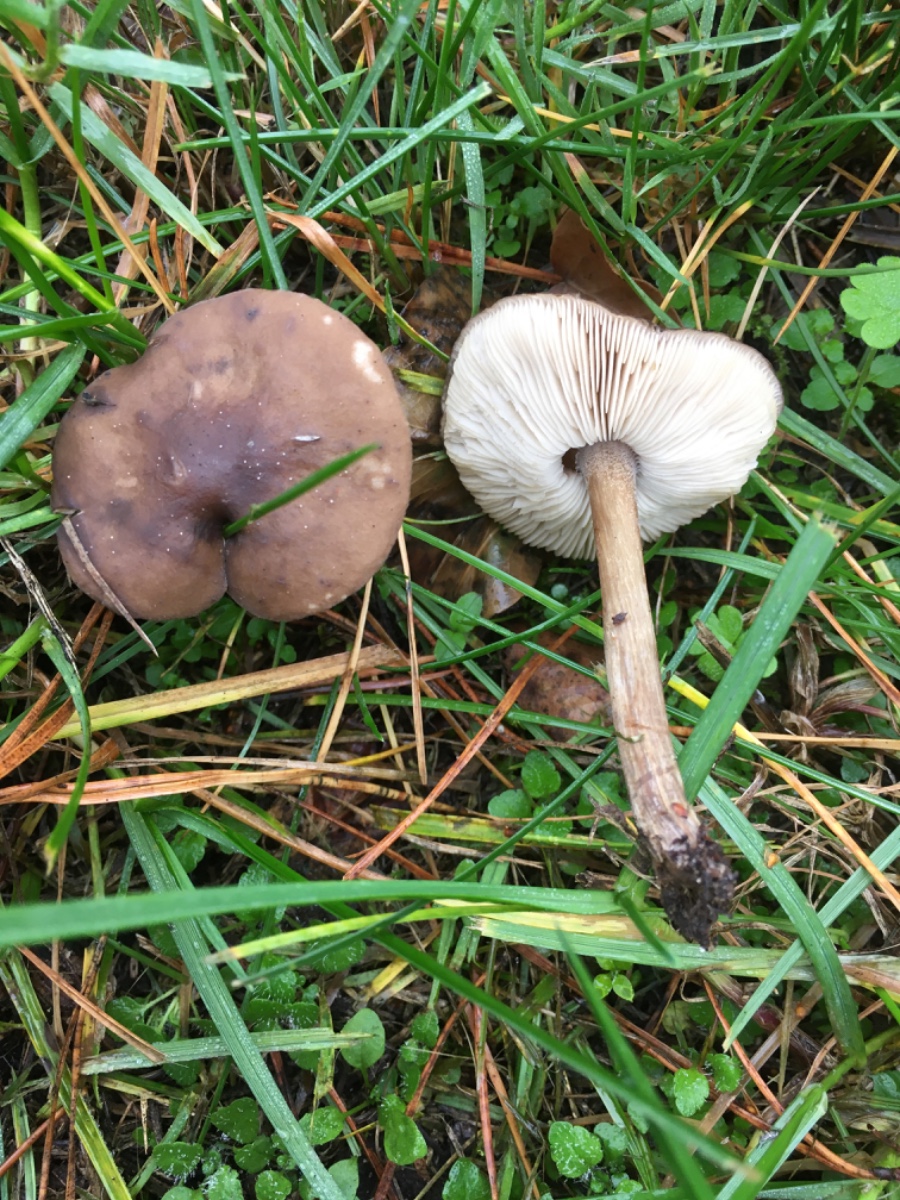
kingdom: Fungi
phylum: Basidiomycota
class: Agaricomycetes
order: Agaricales
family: Tricholomataceae
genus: Melanoleuca
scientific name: Melanoleuca
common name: munkehat
